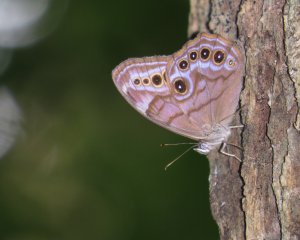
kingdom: Animalia
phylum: Arthropoda
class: Insecta
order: Lepidoptera
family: Nymphalidae
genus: Lethe
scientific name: Lethe anthedon
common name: Northern Pearly-Eye
